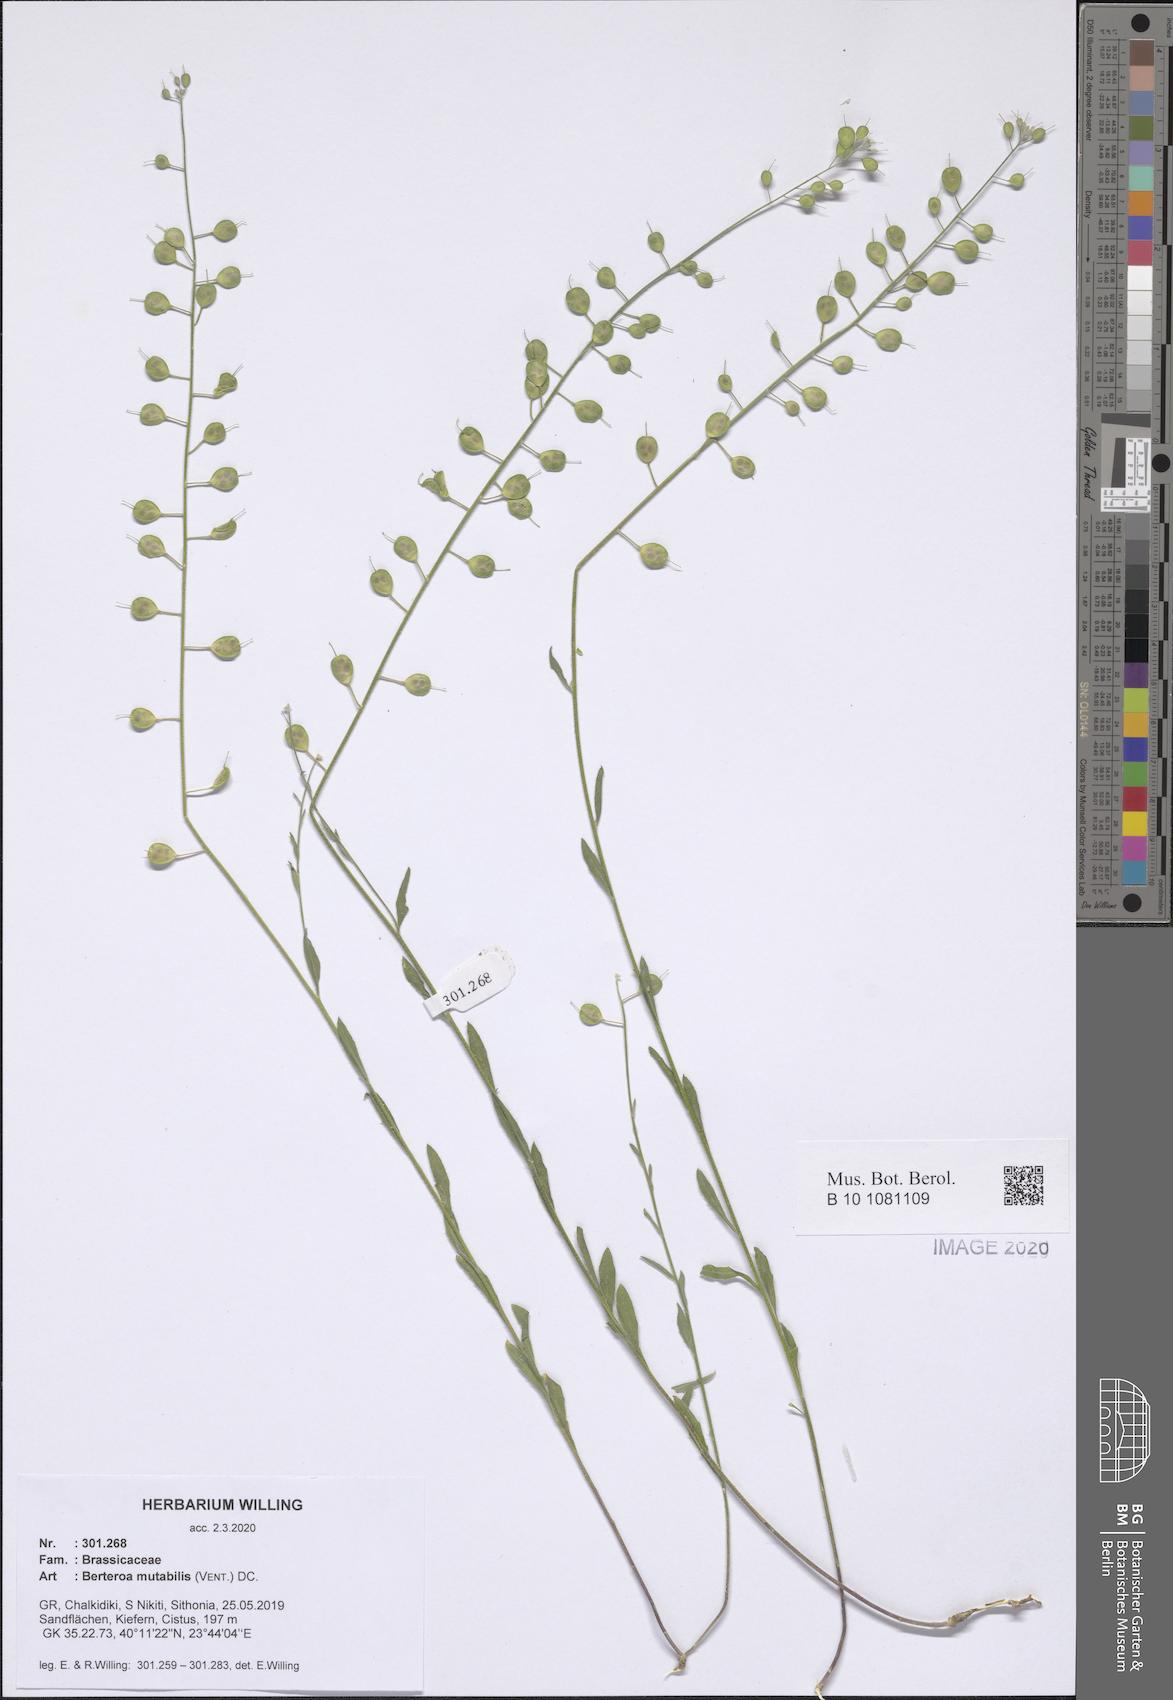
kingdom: Plantae
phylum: Tracheophyta
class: Magnoliopsida
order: Brassicales
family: Brassicaceae
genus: Berteroa
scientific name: Berteroa mutabilis
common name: Roadside false madwort
